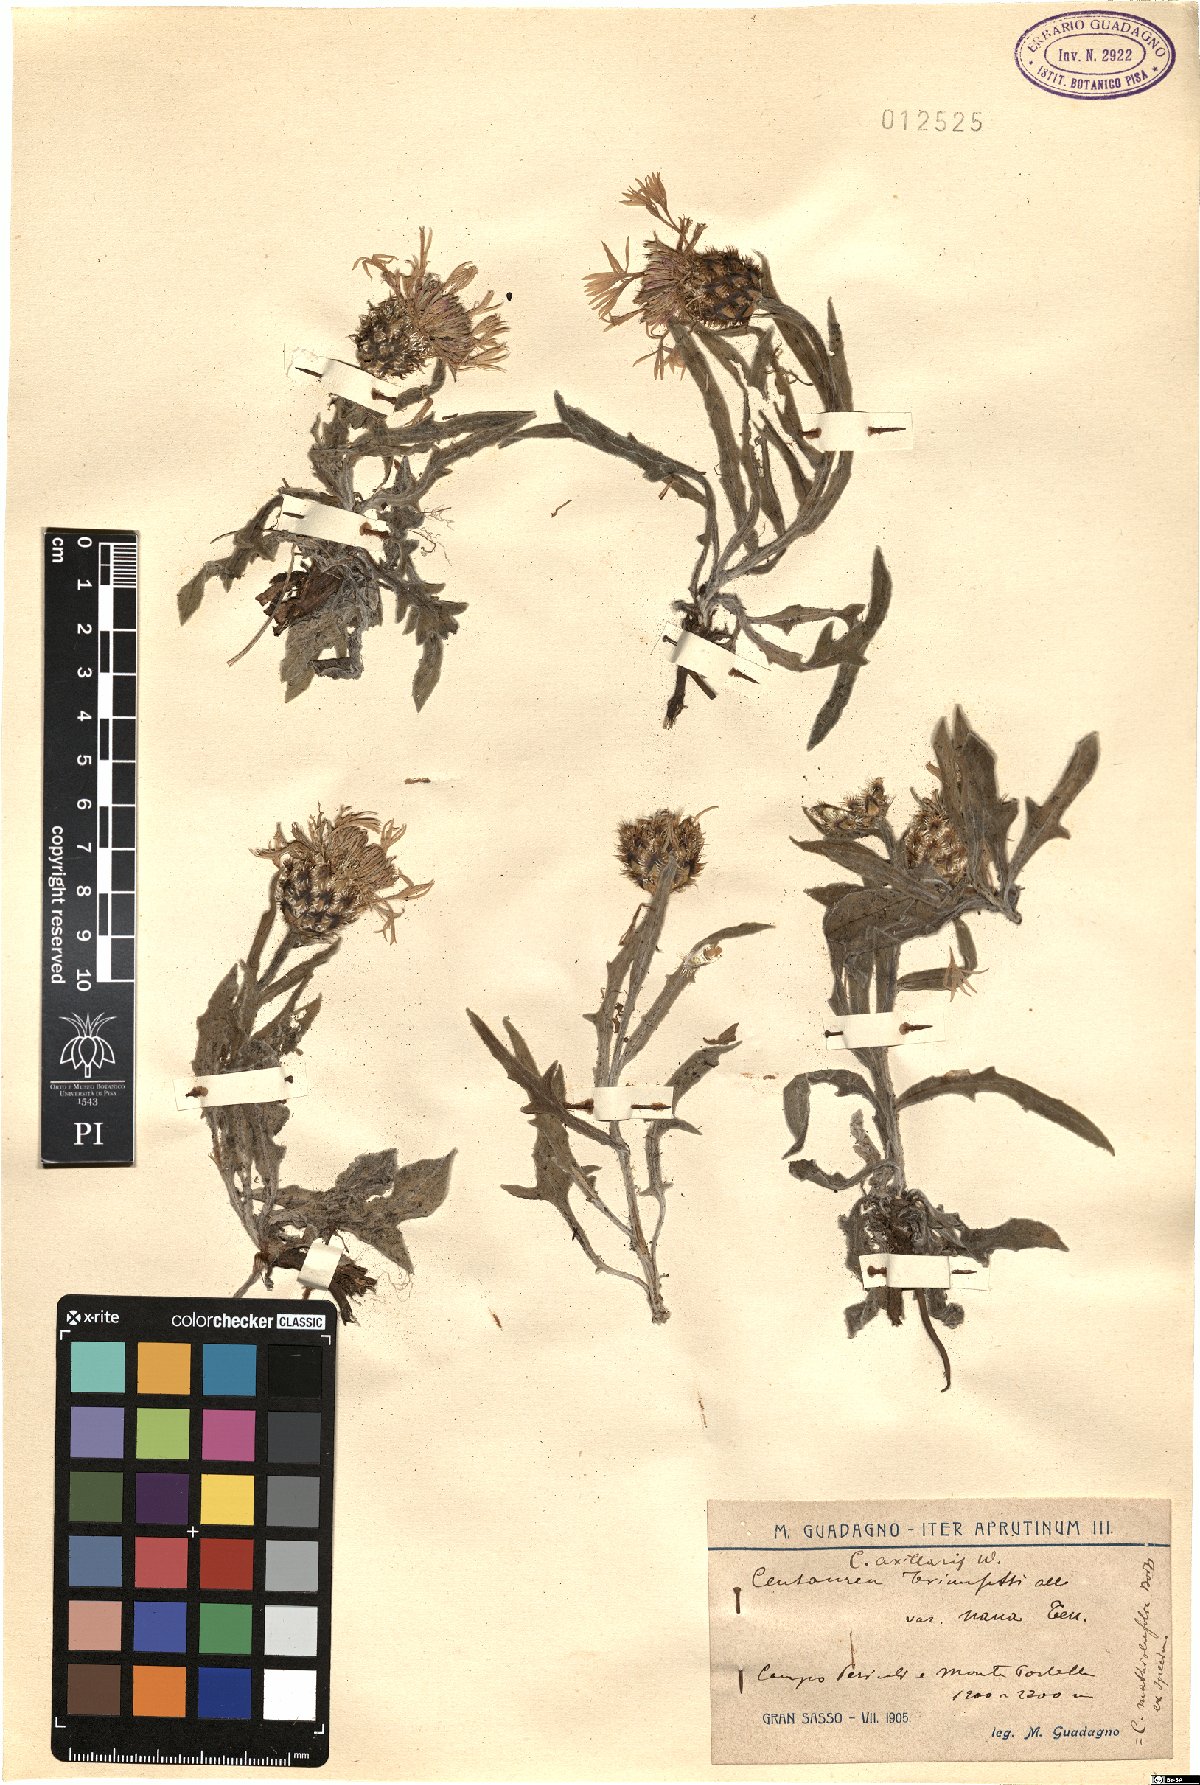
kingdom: Plantae
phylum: Tracheophyta
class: Magnoliopsida
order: Asterales
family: Asteraceae
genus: Centaurea
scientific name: Centaurea triumfettii
